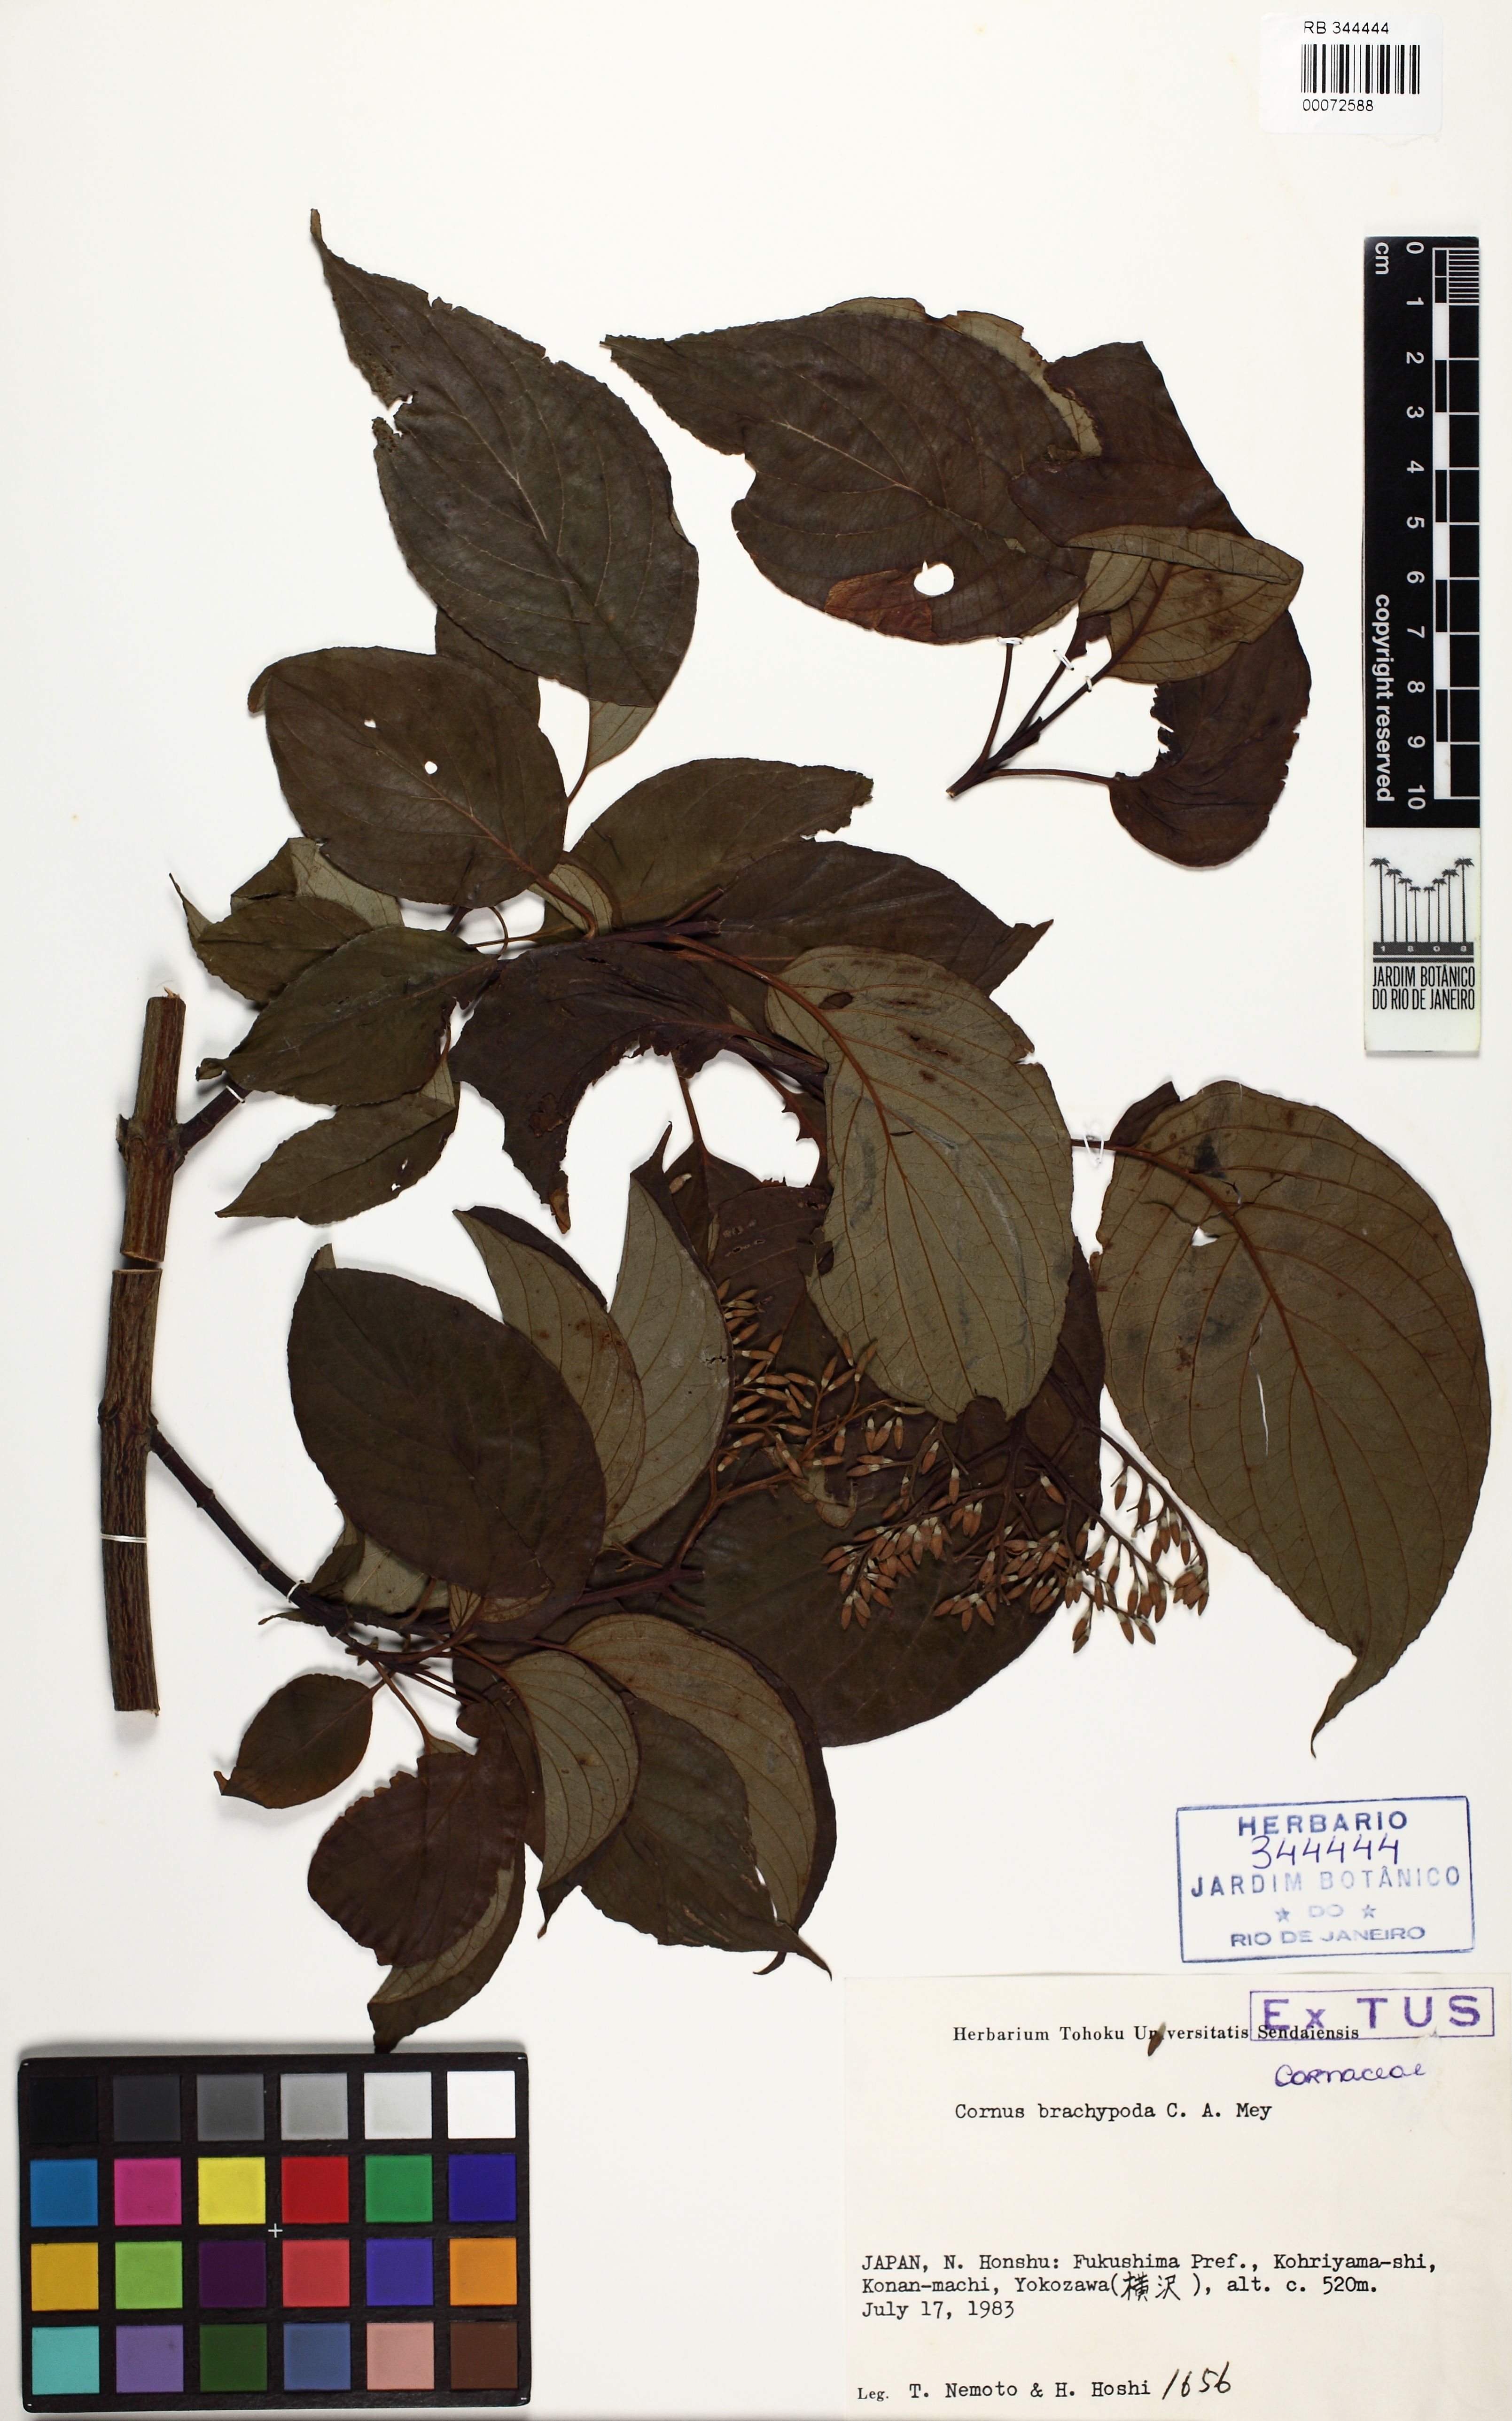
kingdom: Plantae
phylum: Tracheophyta
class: Magnoliopsida
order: Cornales
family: Cornaceae
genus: Cornus
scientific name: Cornus macrophylla
